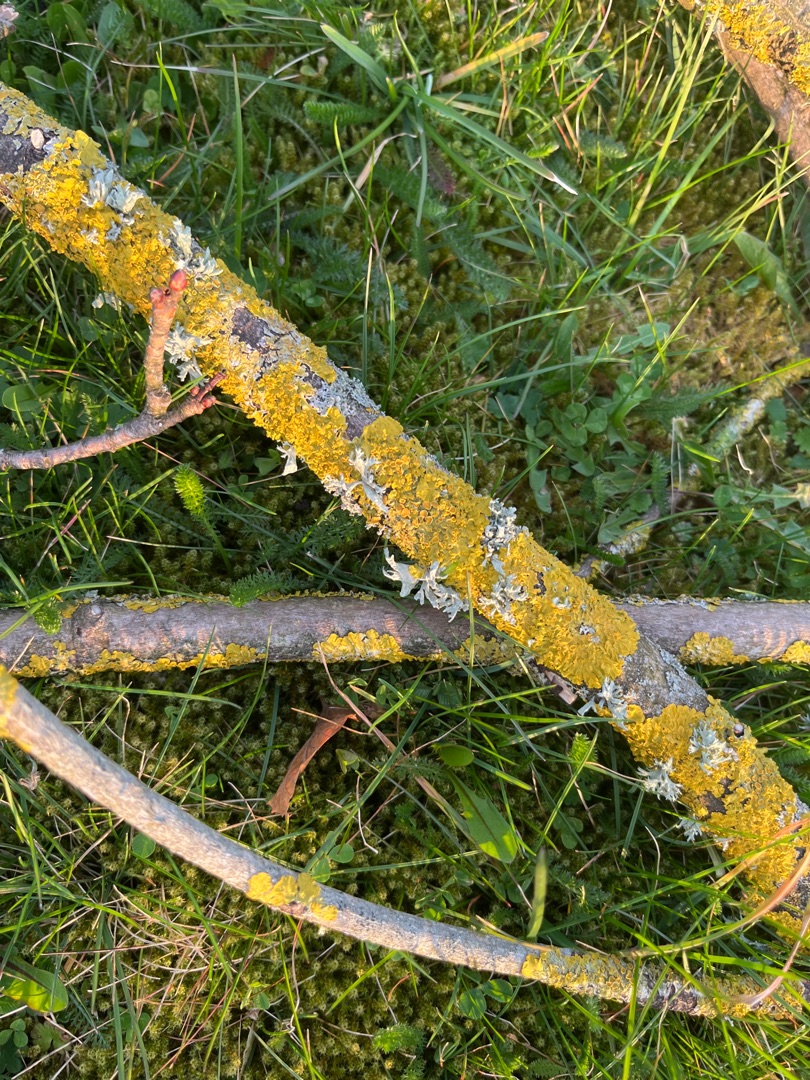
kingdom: Fungi
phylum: Ascomycota
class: Lecanoromycetes
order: Teloschistales
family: Teloschistaceae
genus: Xanthoria
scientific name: Xanthoria parietina
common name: Almindelig væggelav
